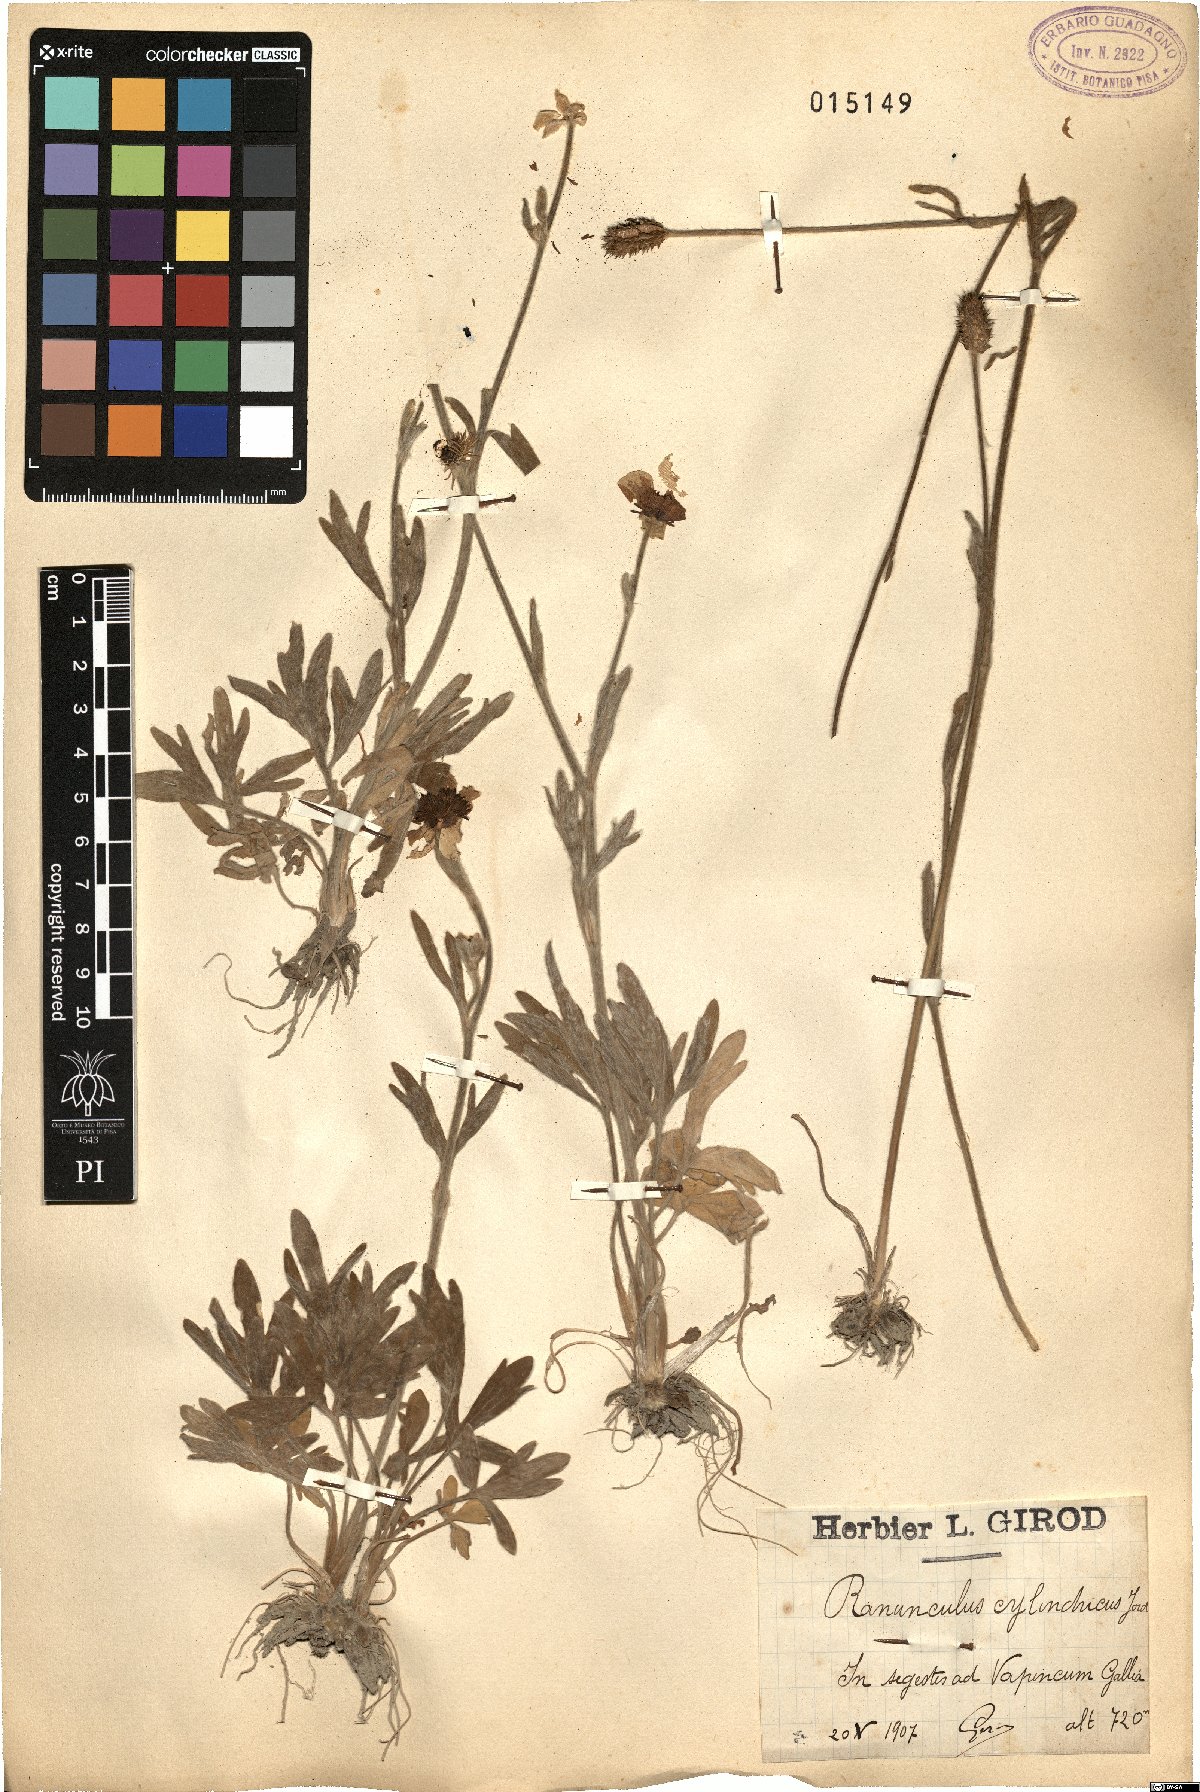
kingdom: Plantae
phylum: Tracheophyta
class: Magnoliopsida
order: Ranunculales
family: Ranunculaceae
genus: Ranunculus
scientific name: Ranunculus monspeliacus
